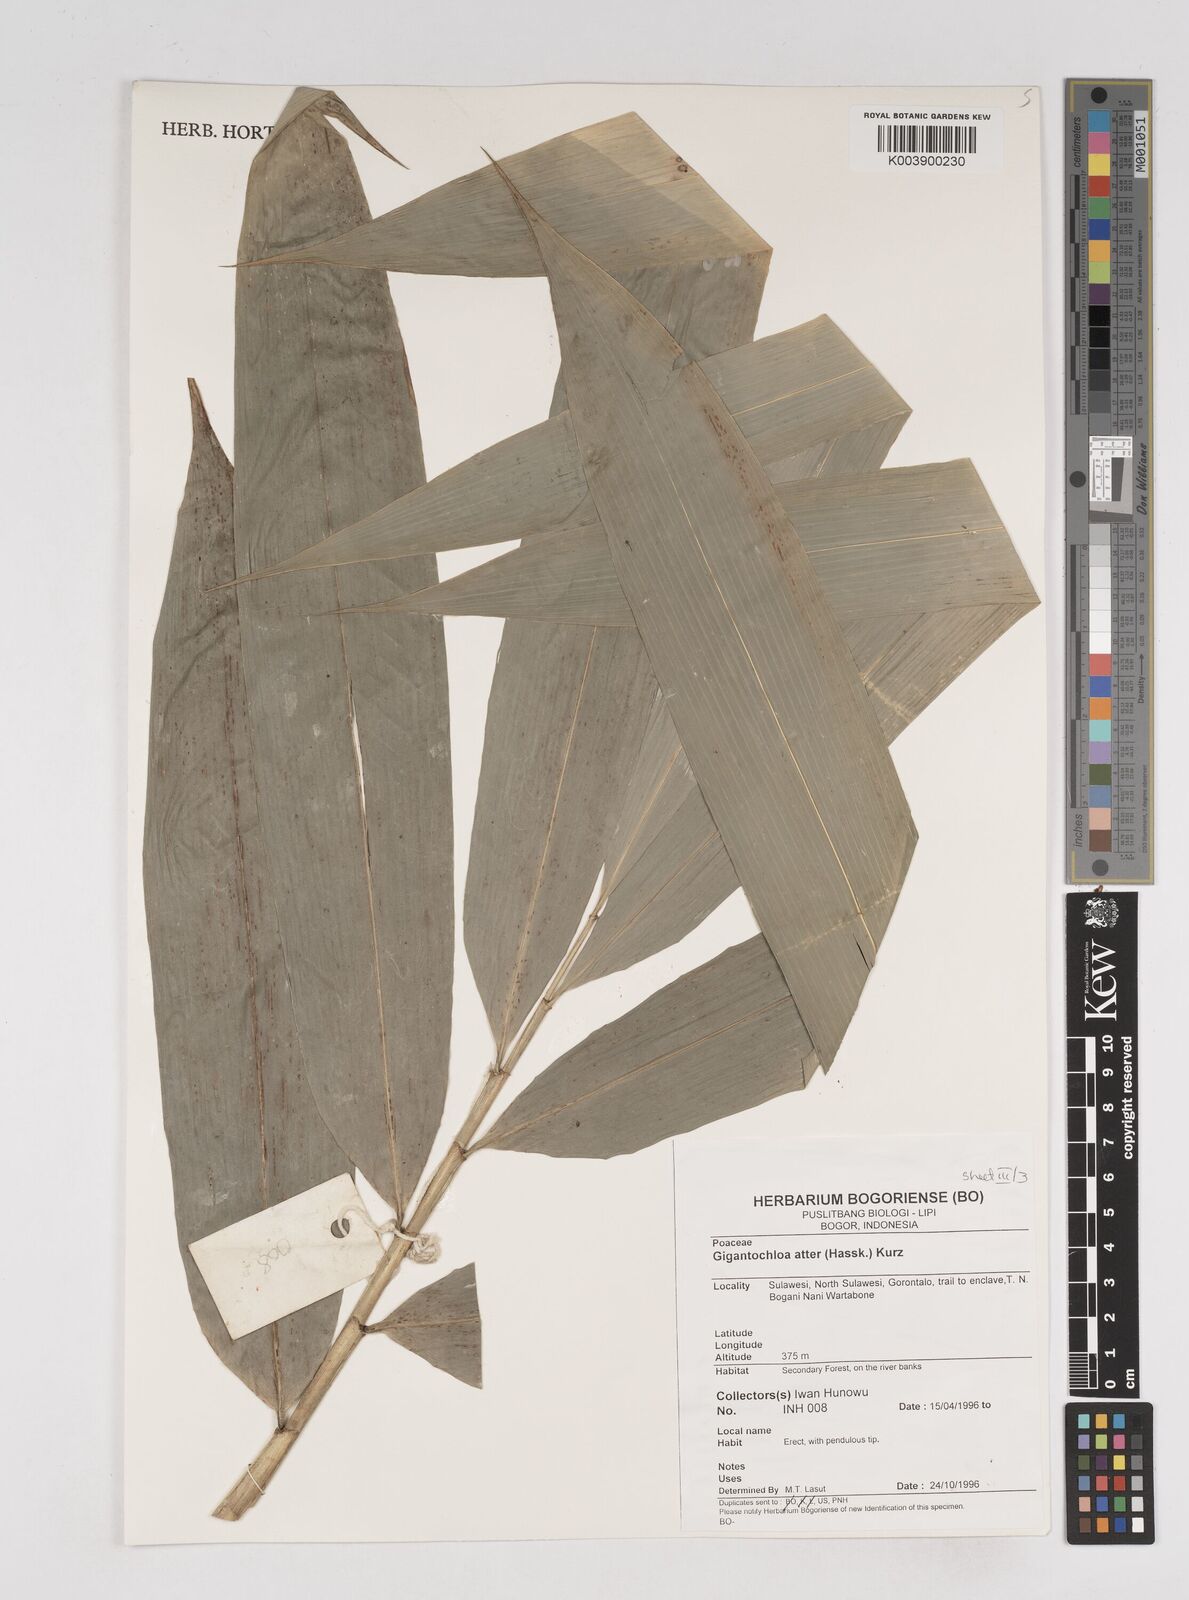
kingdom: Plantae
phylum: Tracheophyta
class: Liliopsida
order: Poales
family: Poaceae
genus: Gigantochloa
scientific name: Gigantochloa atter
